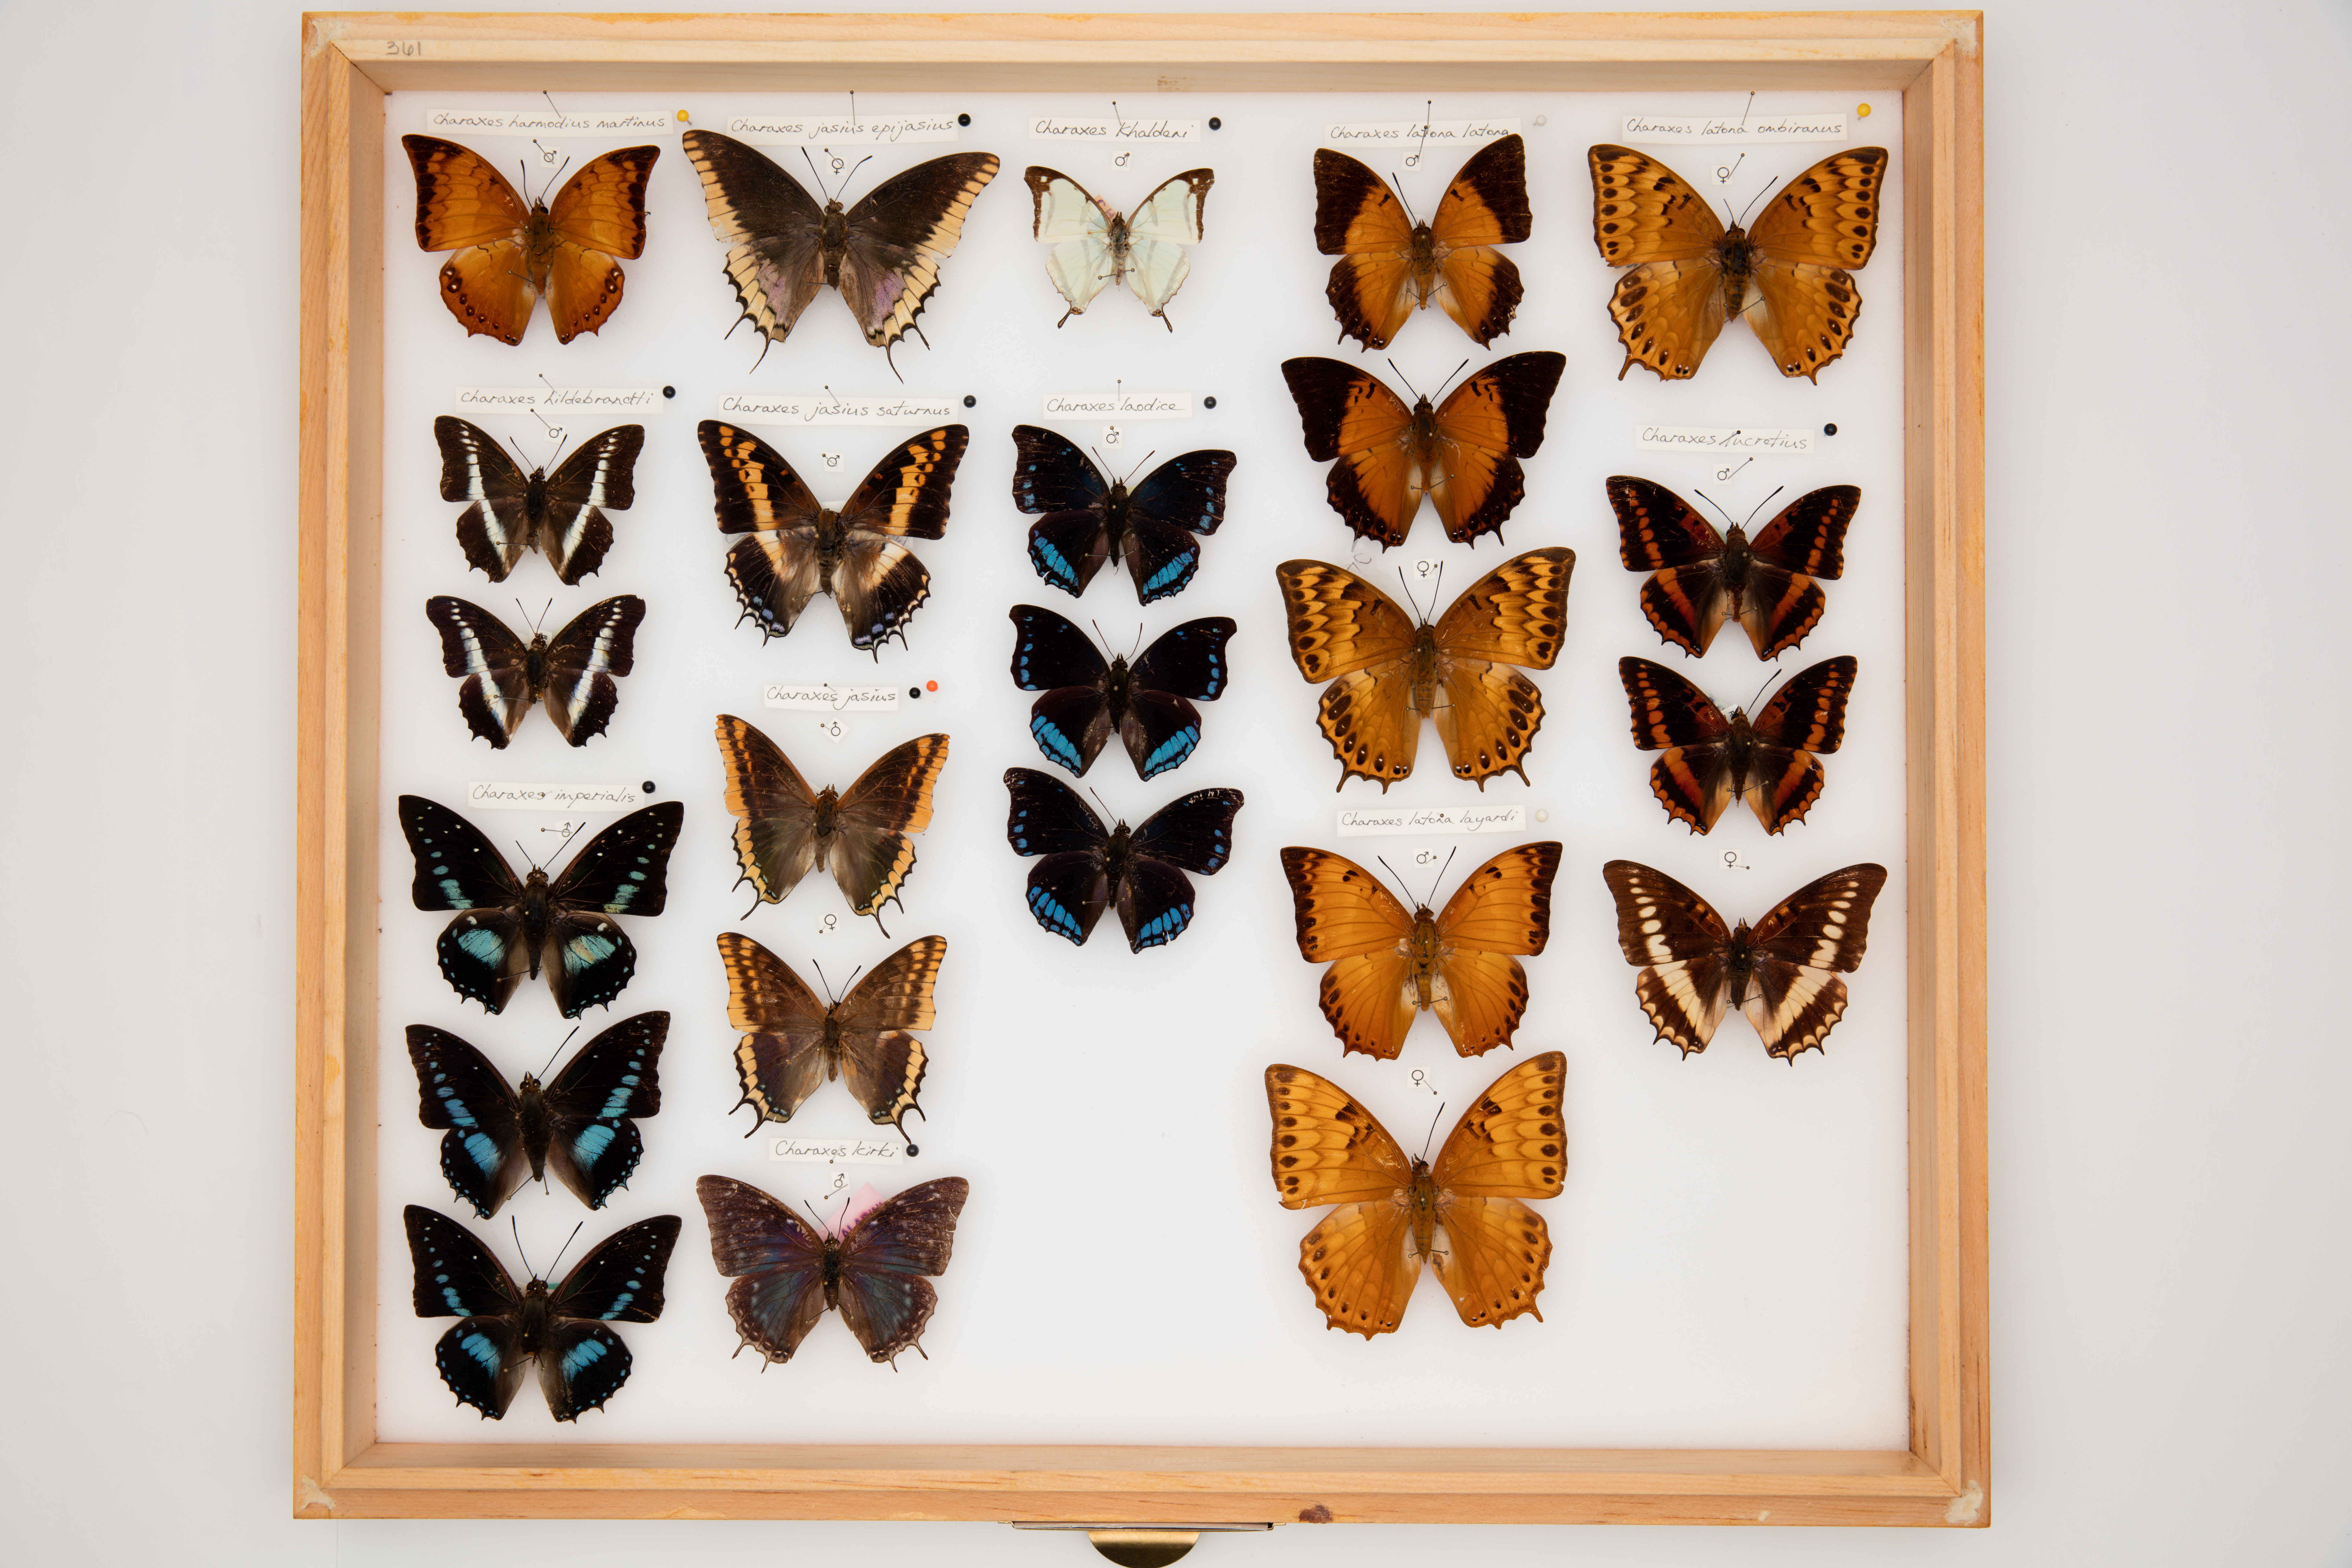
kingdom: Animalia
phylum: Arthropoda
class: Insecta
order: Lepidoptera
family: Nymphalidae
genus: Charaxes
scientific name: Charaxes lucretius
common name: Violet-washed charaxes
